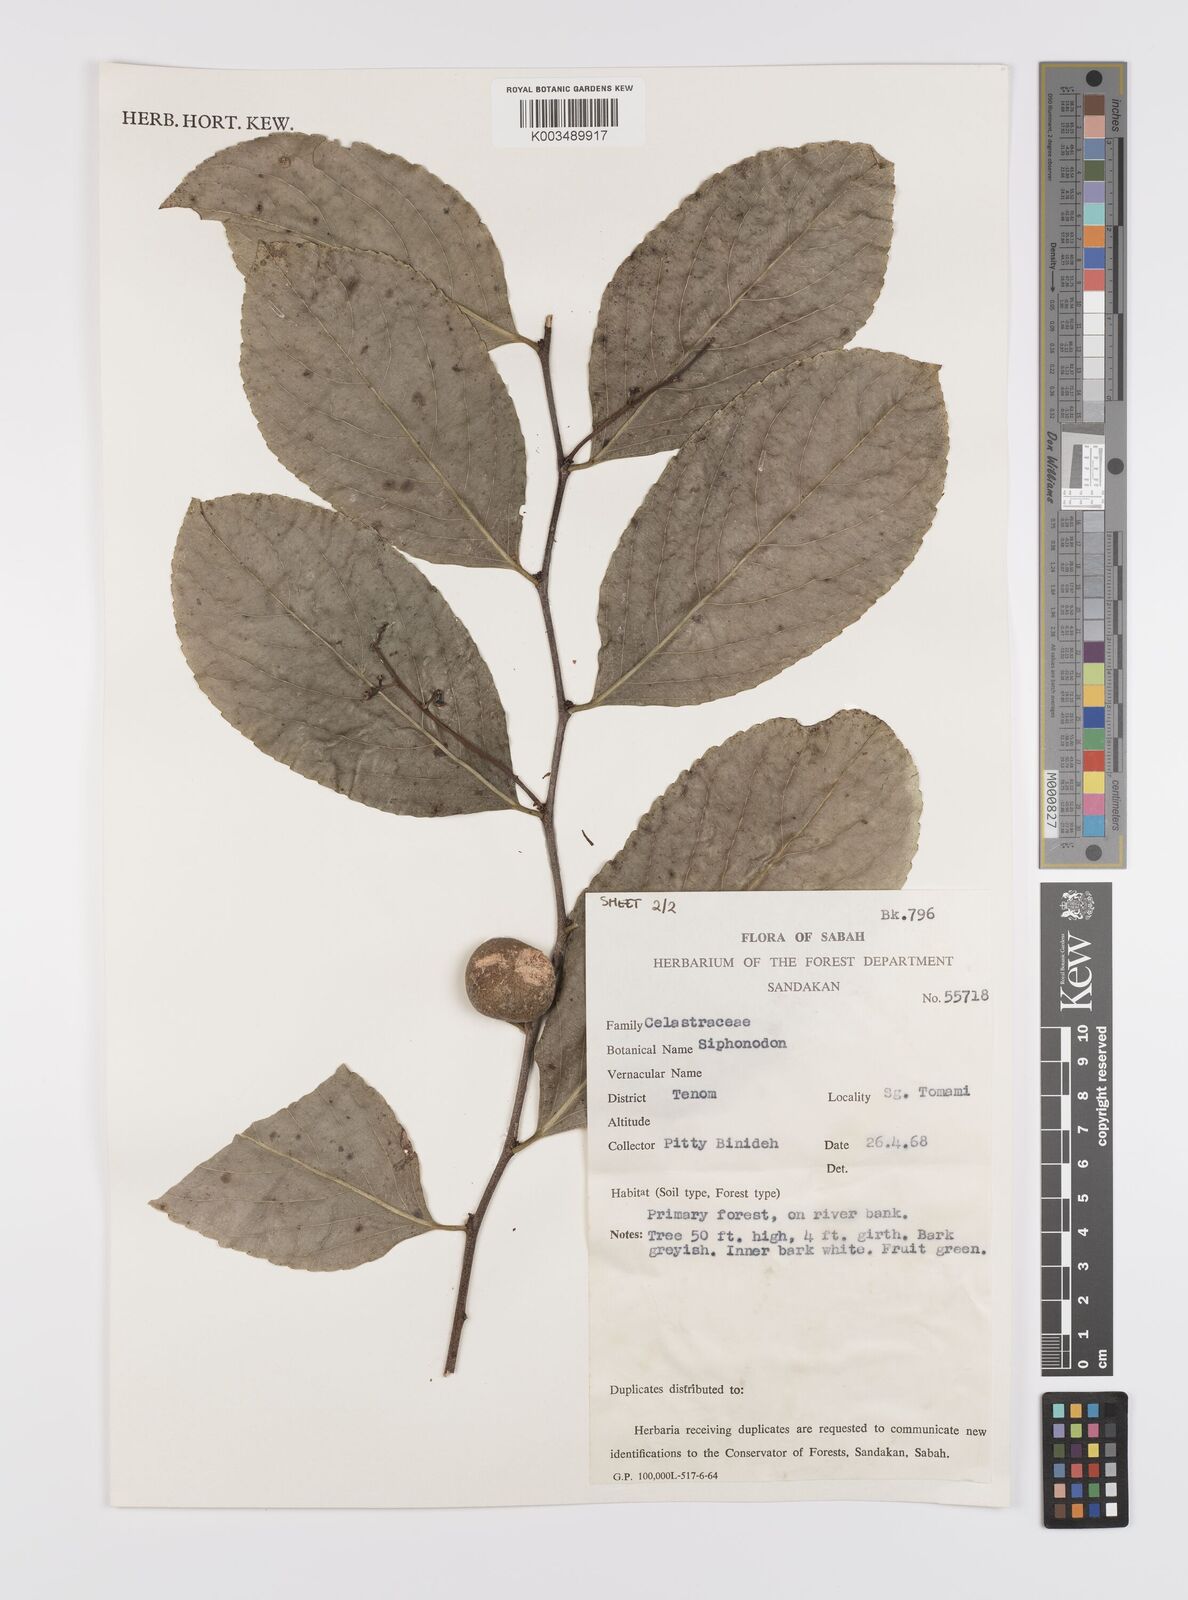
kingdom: Plantae
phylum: Tracheophyta
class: Magnoliopsida
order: Celastrales
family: Celastraceae
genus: Siphonodon
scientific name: Siphonodon
